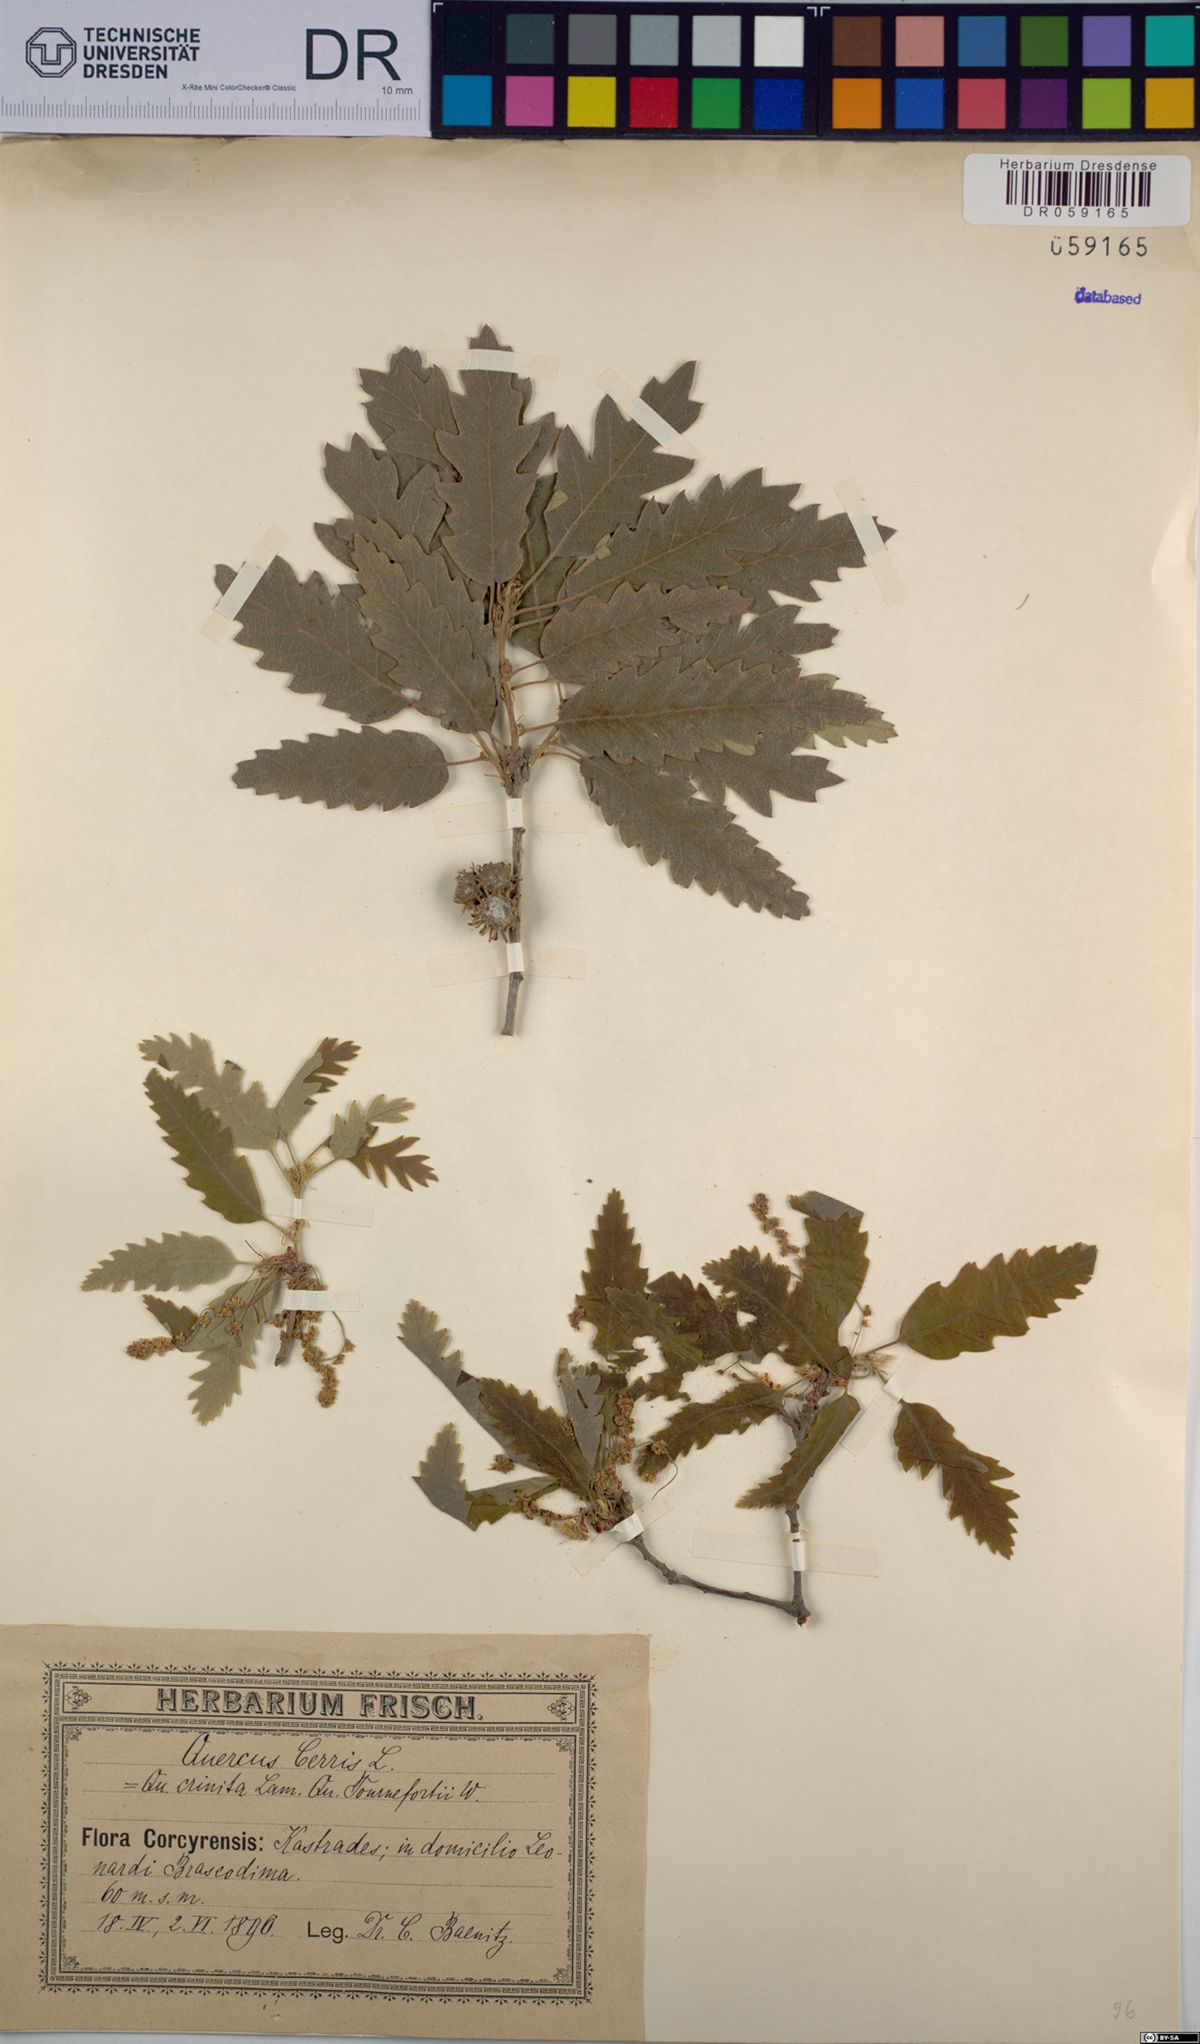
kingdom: Plantae
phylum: Tracheophyta
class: Magnoliopsida
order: Fagales
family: Fagaceae
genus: Quercus
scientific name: Quercus cerris
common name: Turkey oak
